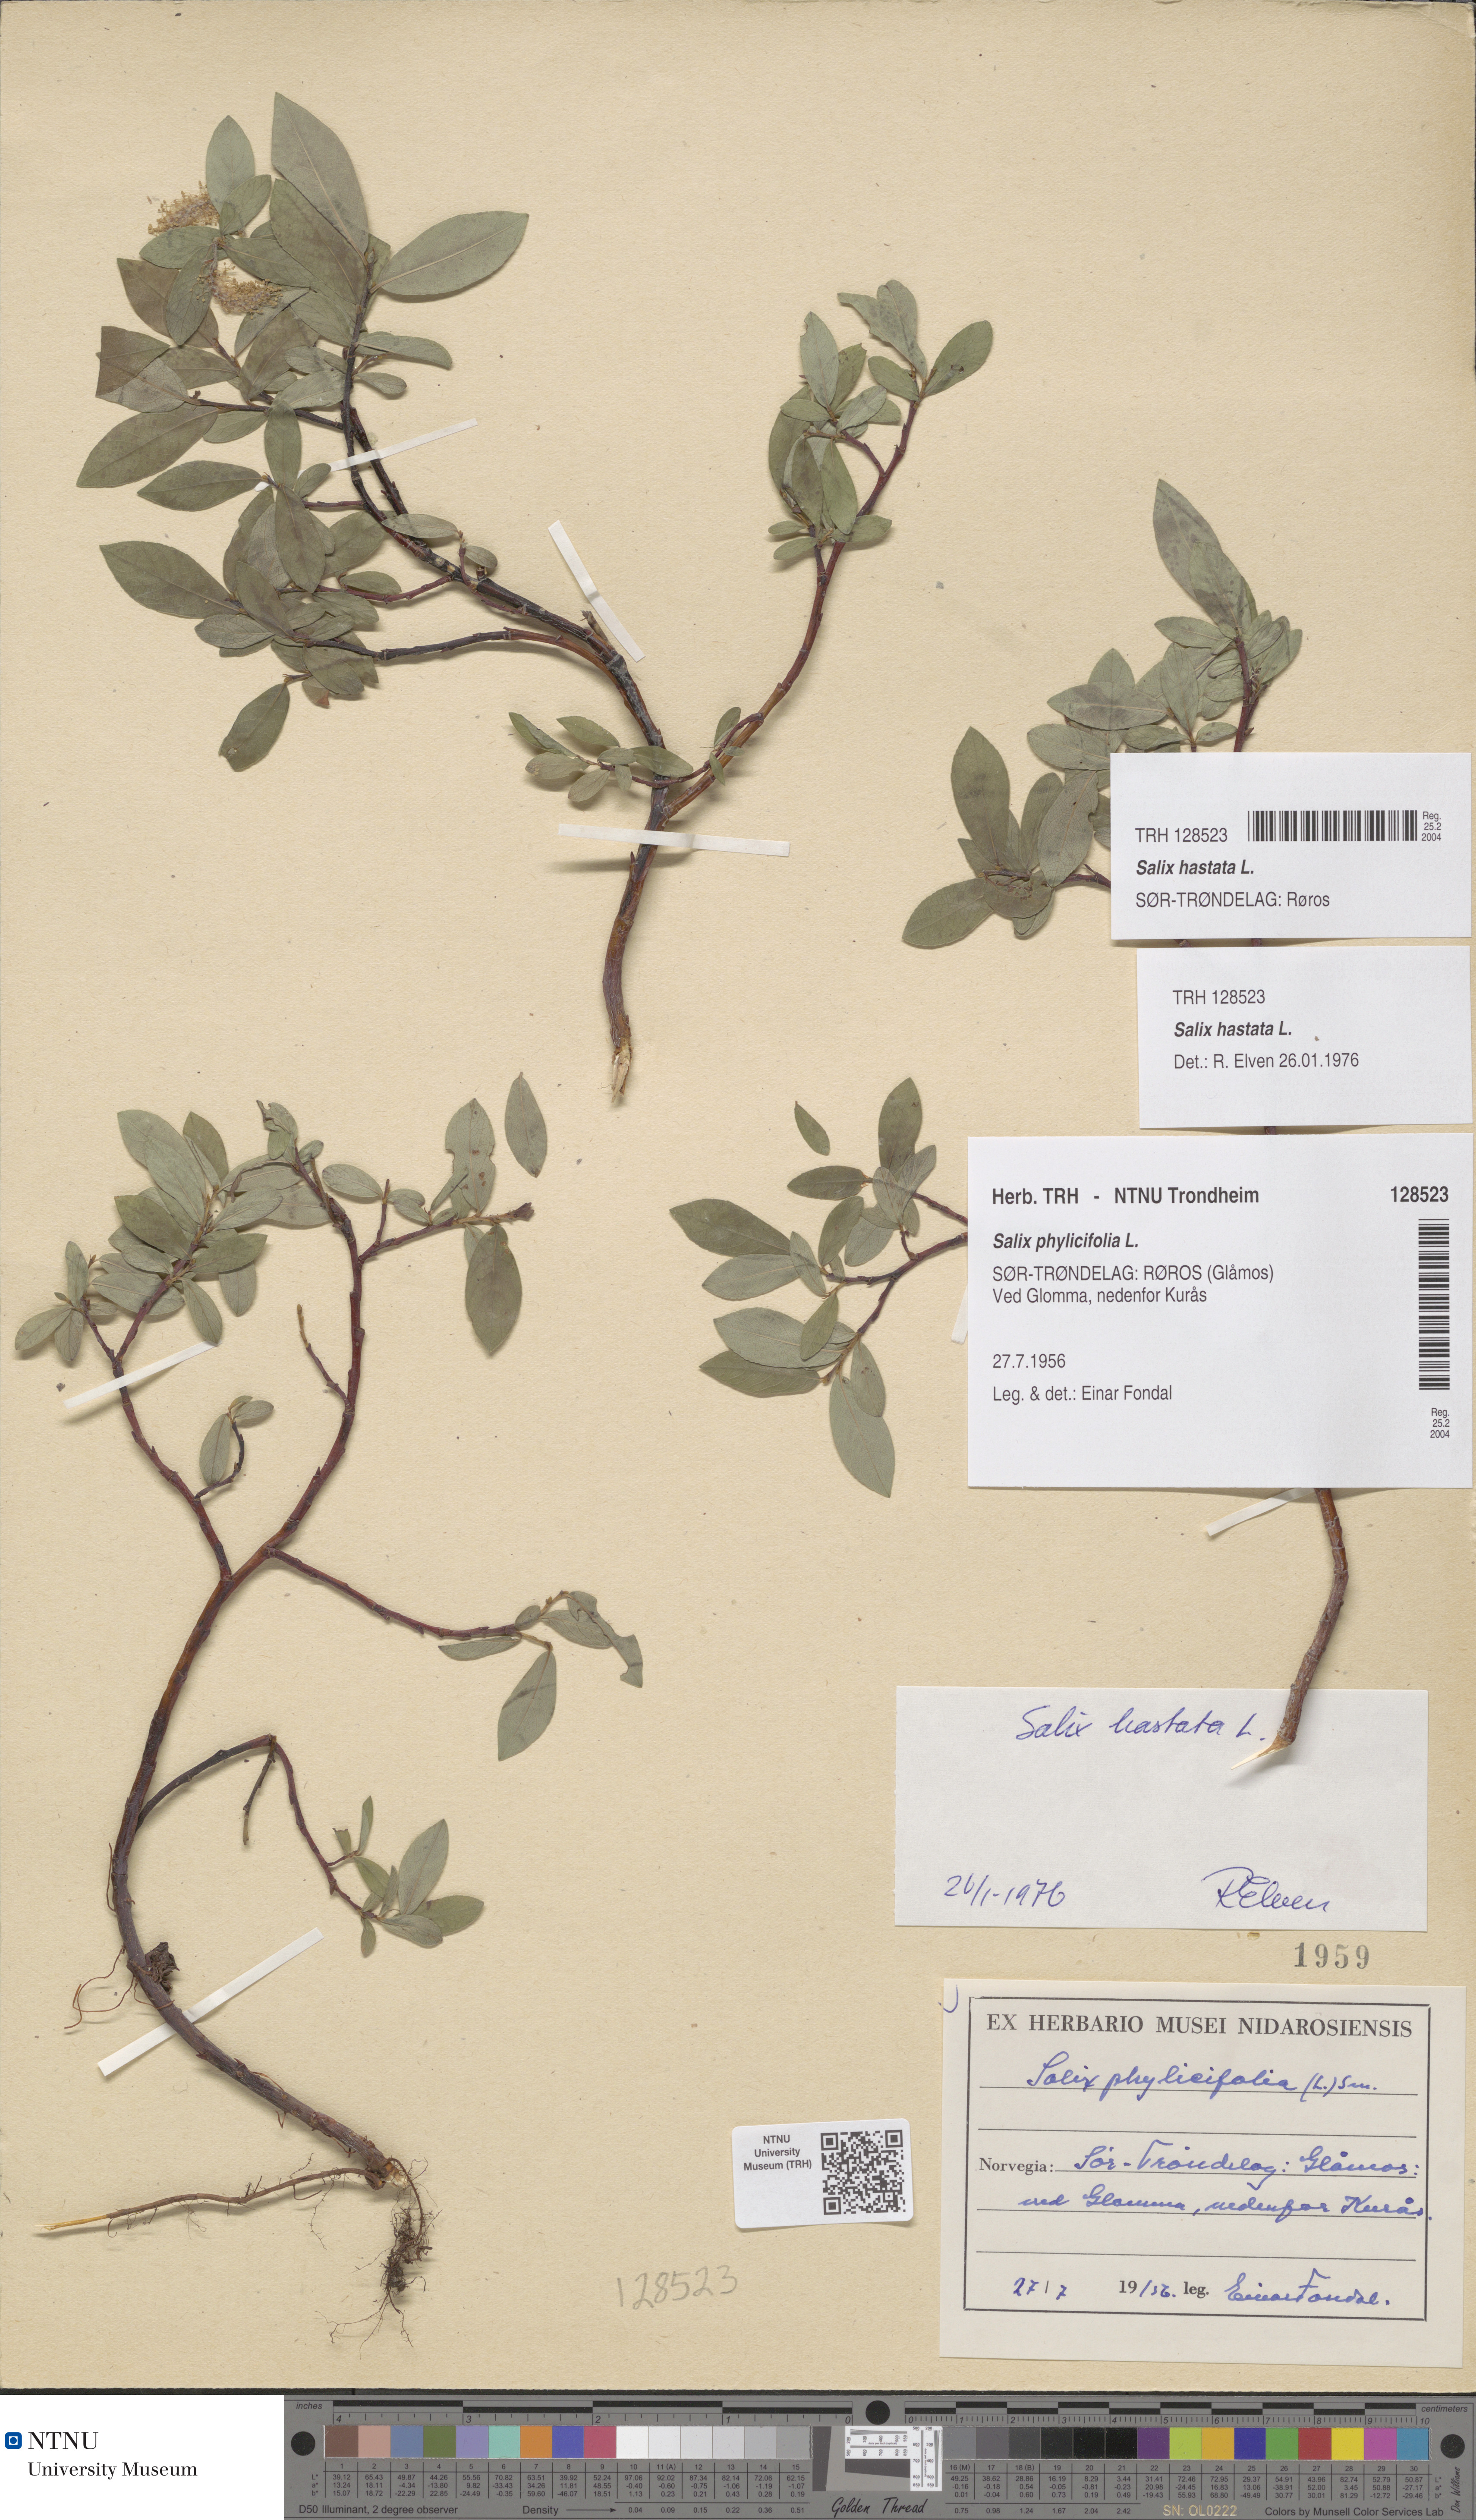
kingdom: Plantae
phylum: Tracheophyta
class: Magnoliopsida
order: Malpighiales
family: Salicaceae
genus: Salix
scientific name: Salix hastata
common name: Halberd willow
